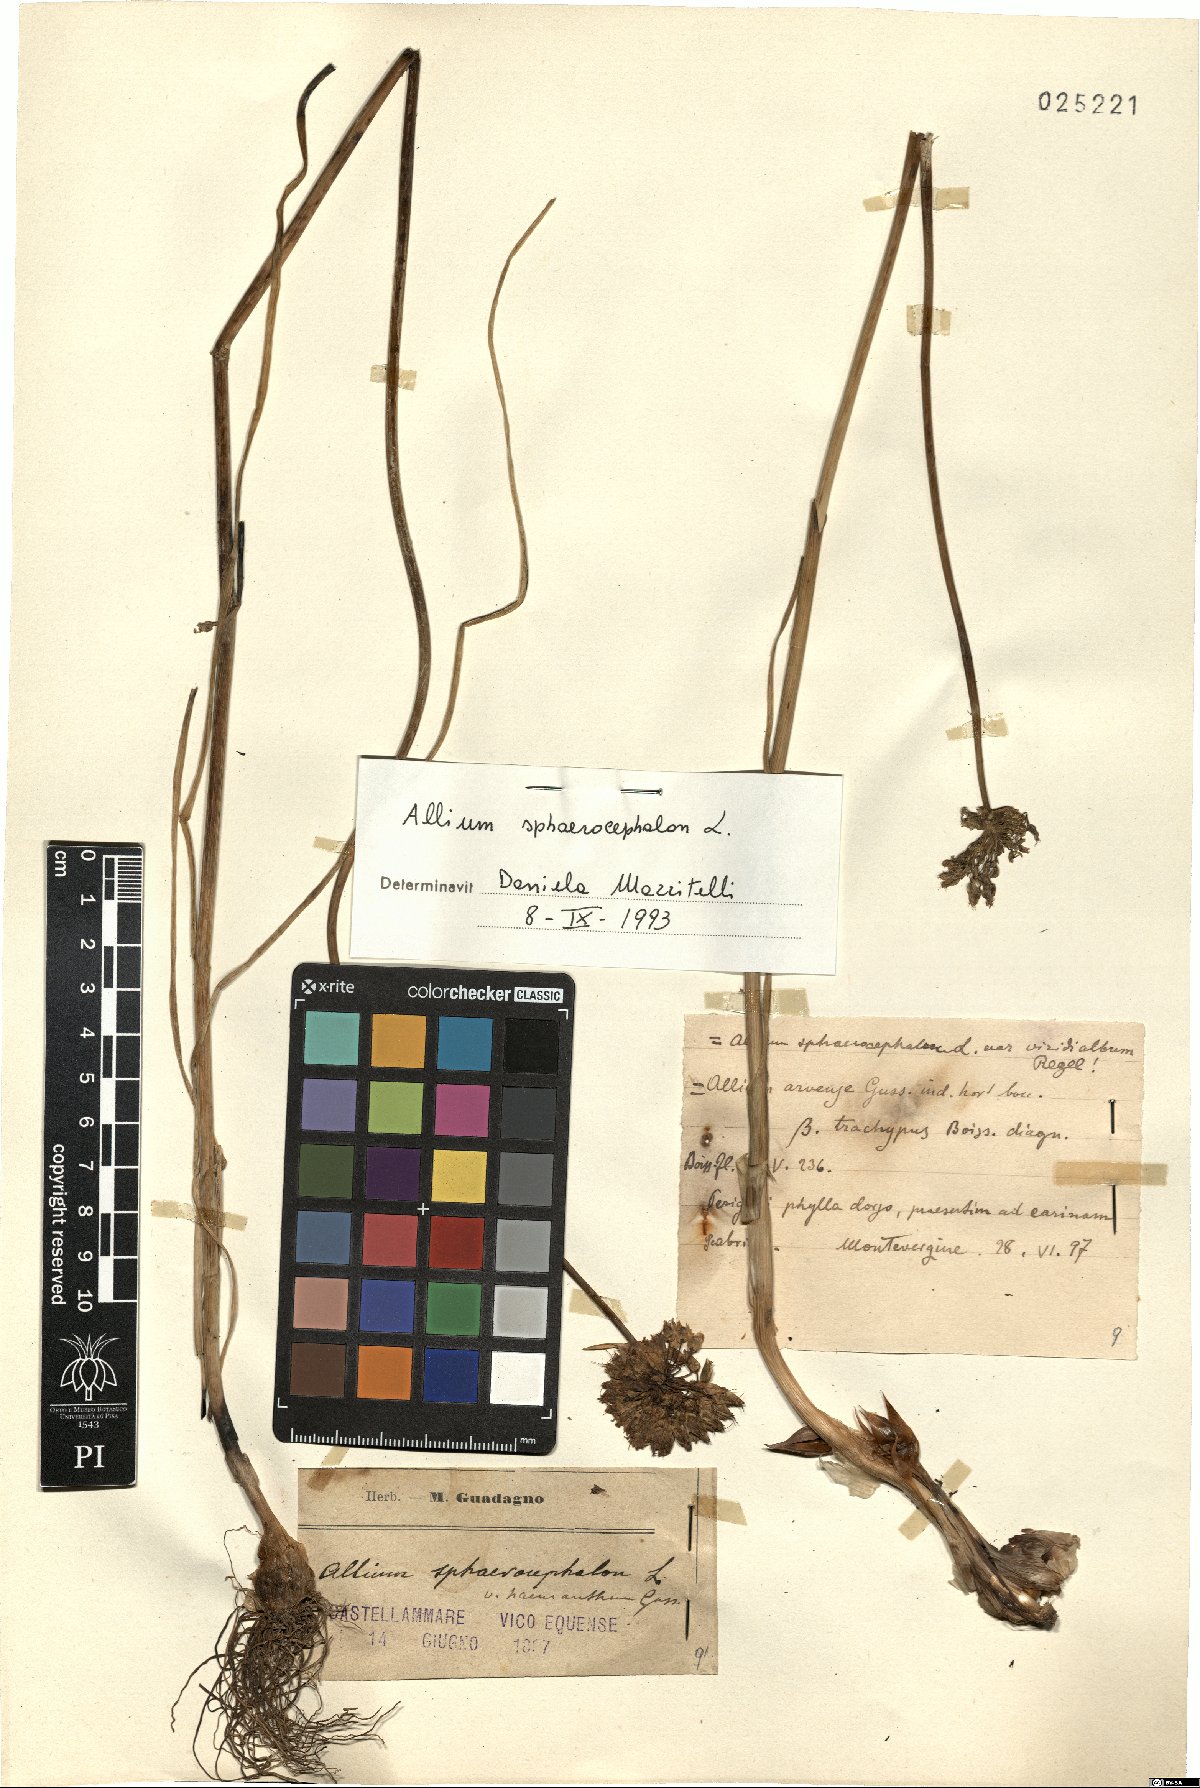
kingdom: Plantae
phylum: Tracheophyta
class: Liliopsida
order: Asparagales
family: Amaryllidaceae
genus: Allium
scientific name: Allium sphaerocephalon
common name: Round-headed leek
